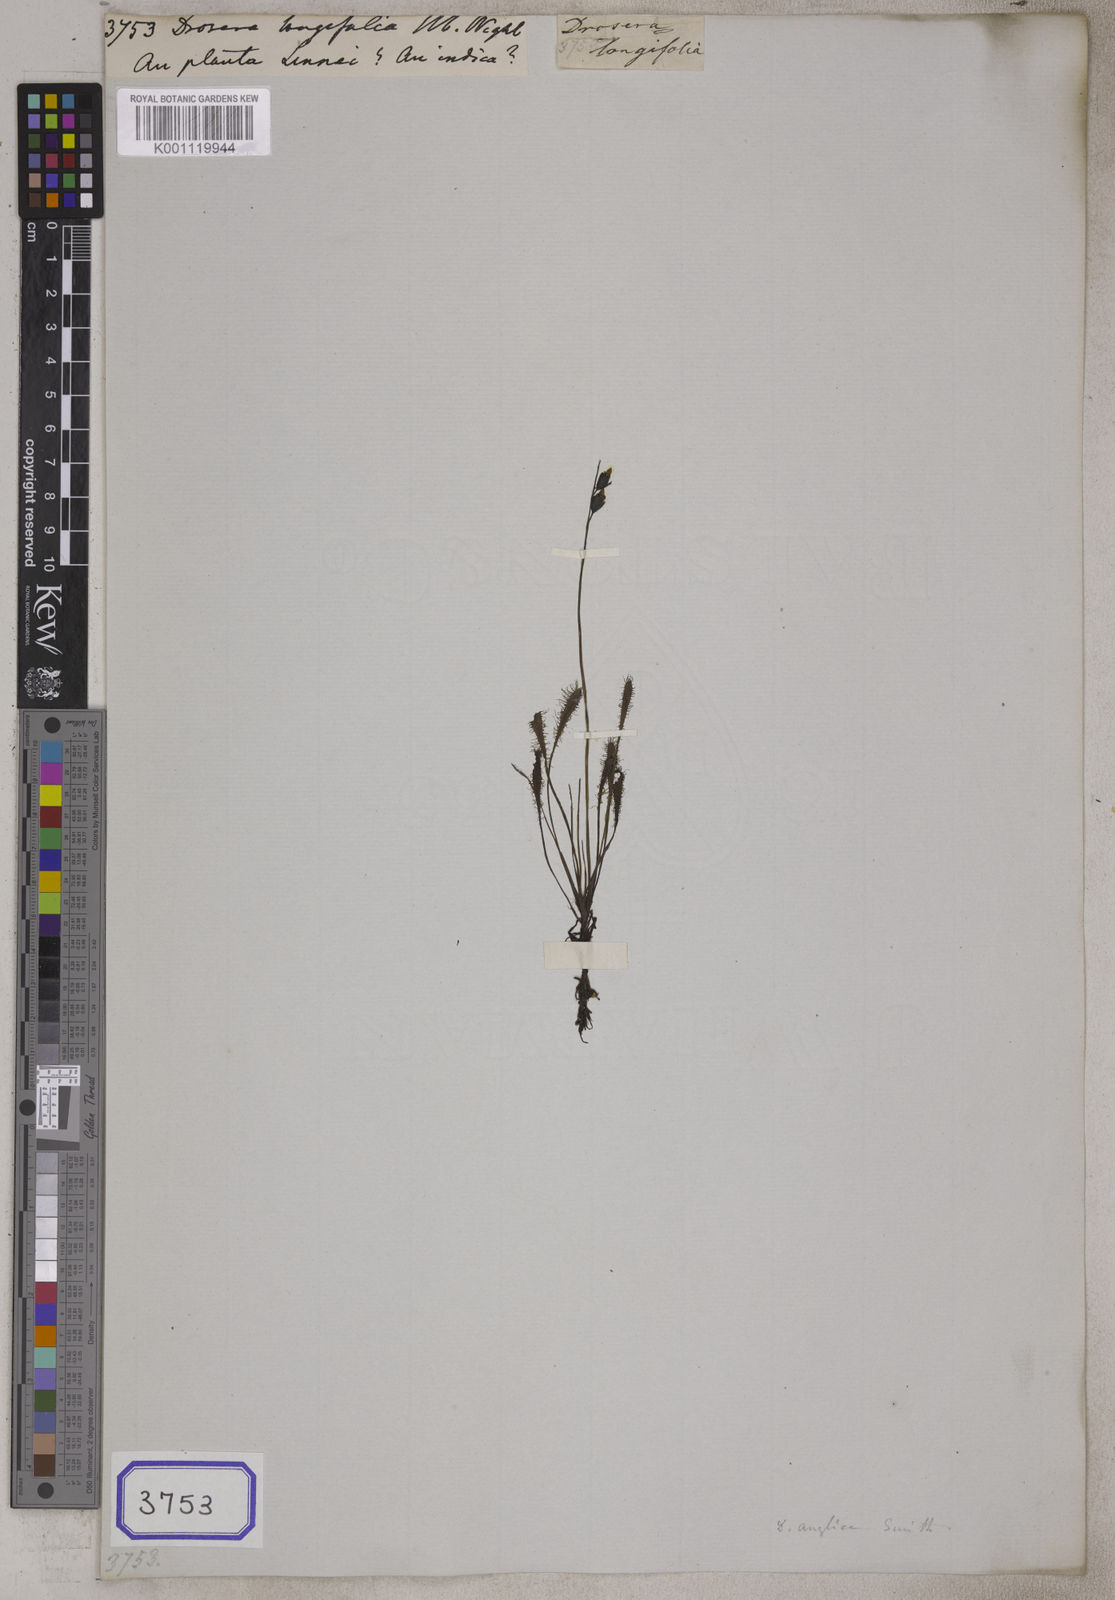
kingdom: Plantae
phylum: Tracheophyta
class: Magnoliopsida
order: Caryophyllales
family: Droseraceae
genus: Drosera
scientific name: Drosera anglica
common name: Great sundew
